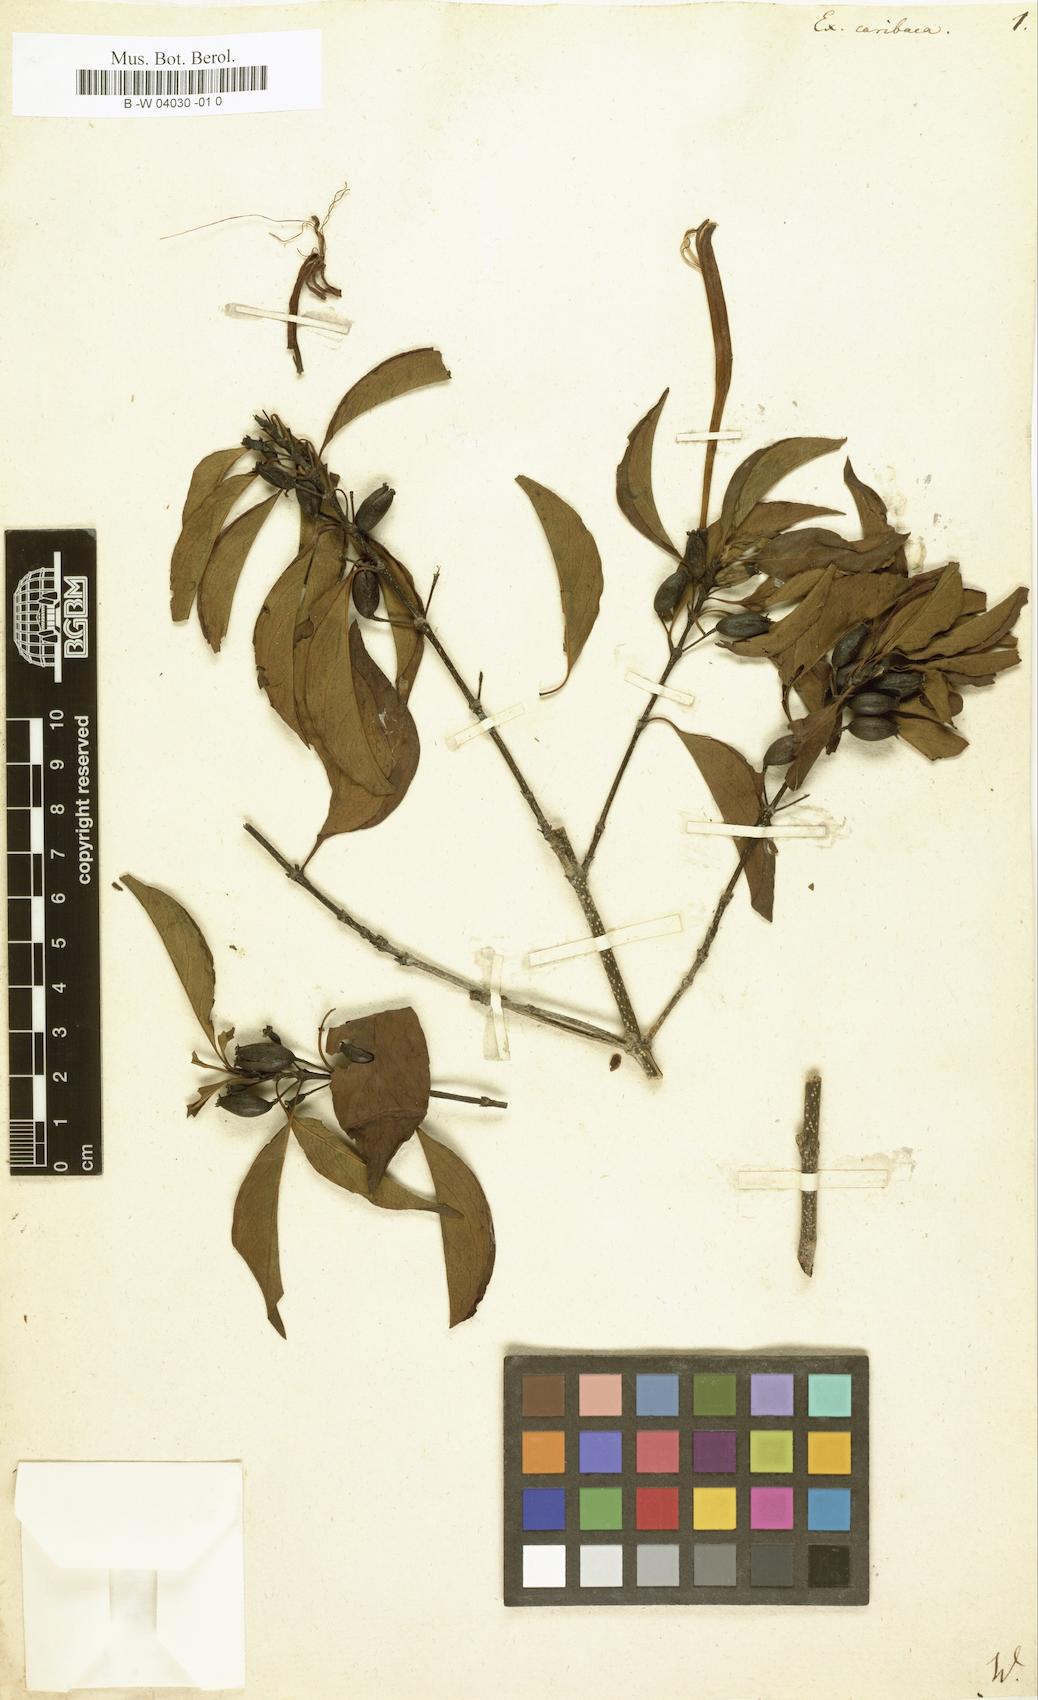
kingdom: Plantae
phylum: Tracheophyta
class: Magnoliopsida
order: Gentianales
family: Rubiaceae
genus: Exostema
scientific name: Exostema caribaeum
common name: Princewood
